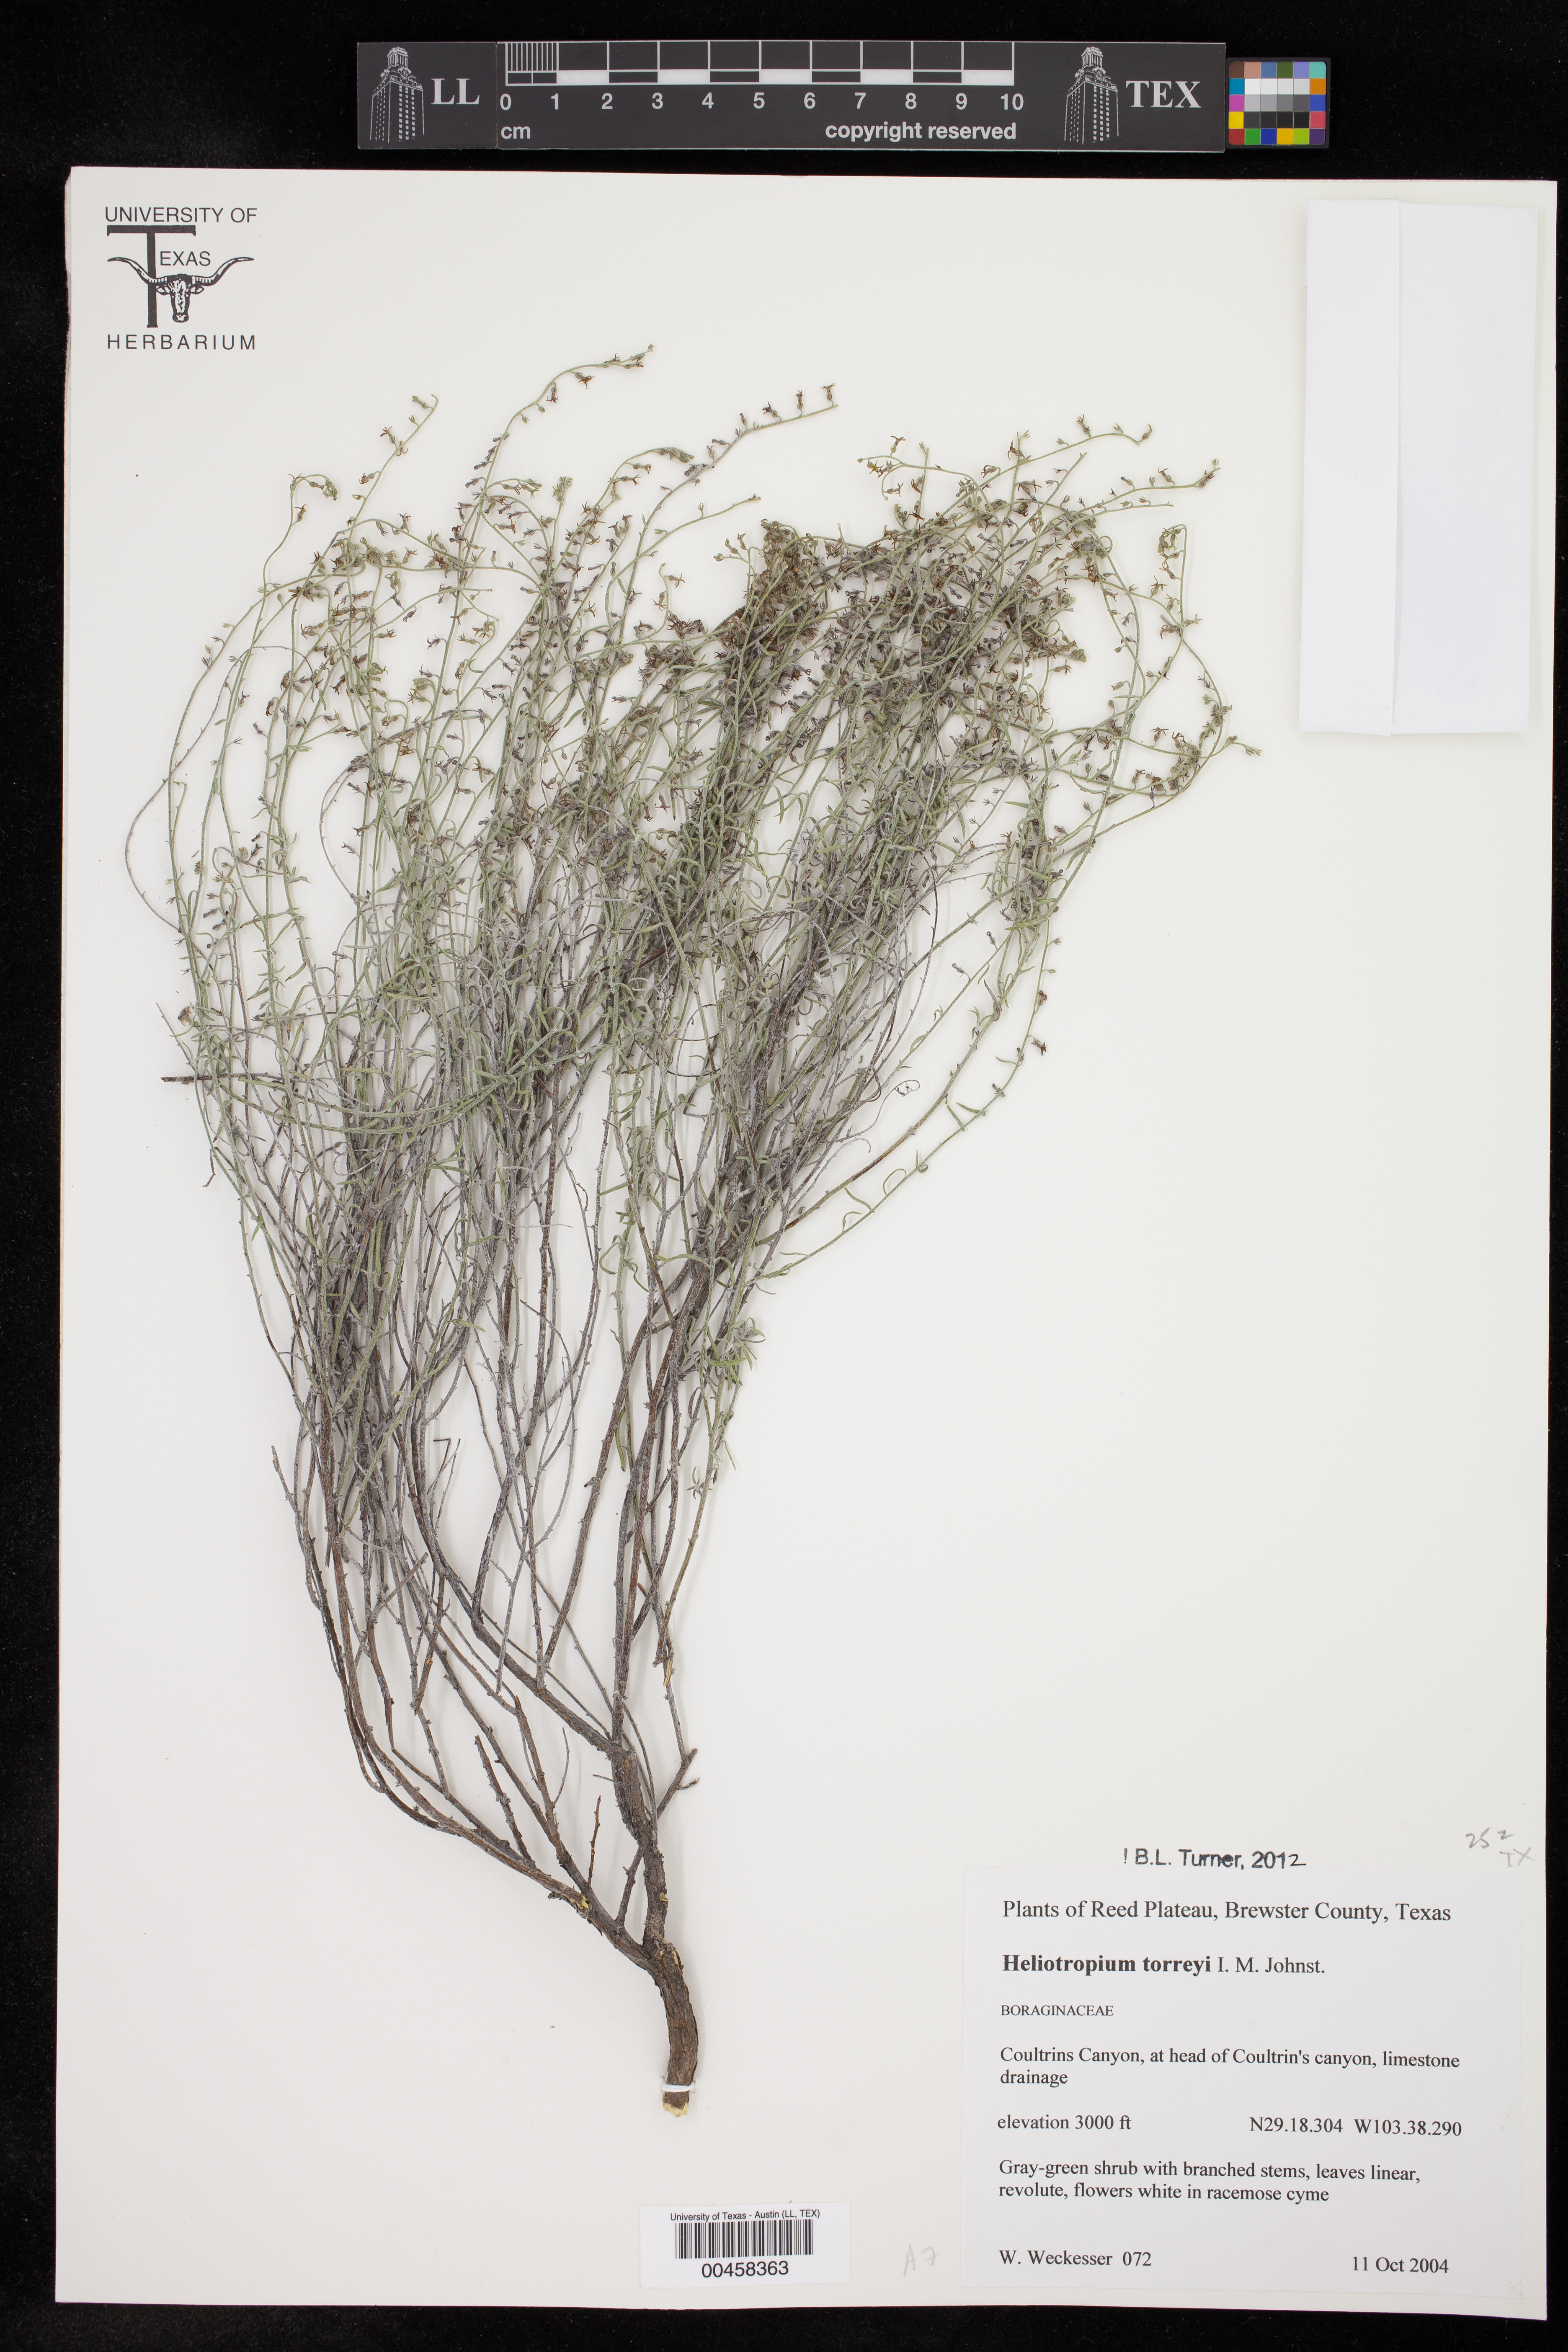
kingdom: Plantae
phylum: Tracheophyta
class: Magnoliopsida
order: Boraginales
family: Heliotropiaceae
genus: Euploca
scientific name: Euploca torreyi
